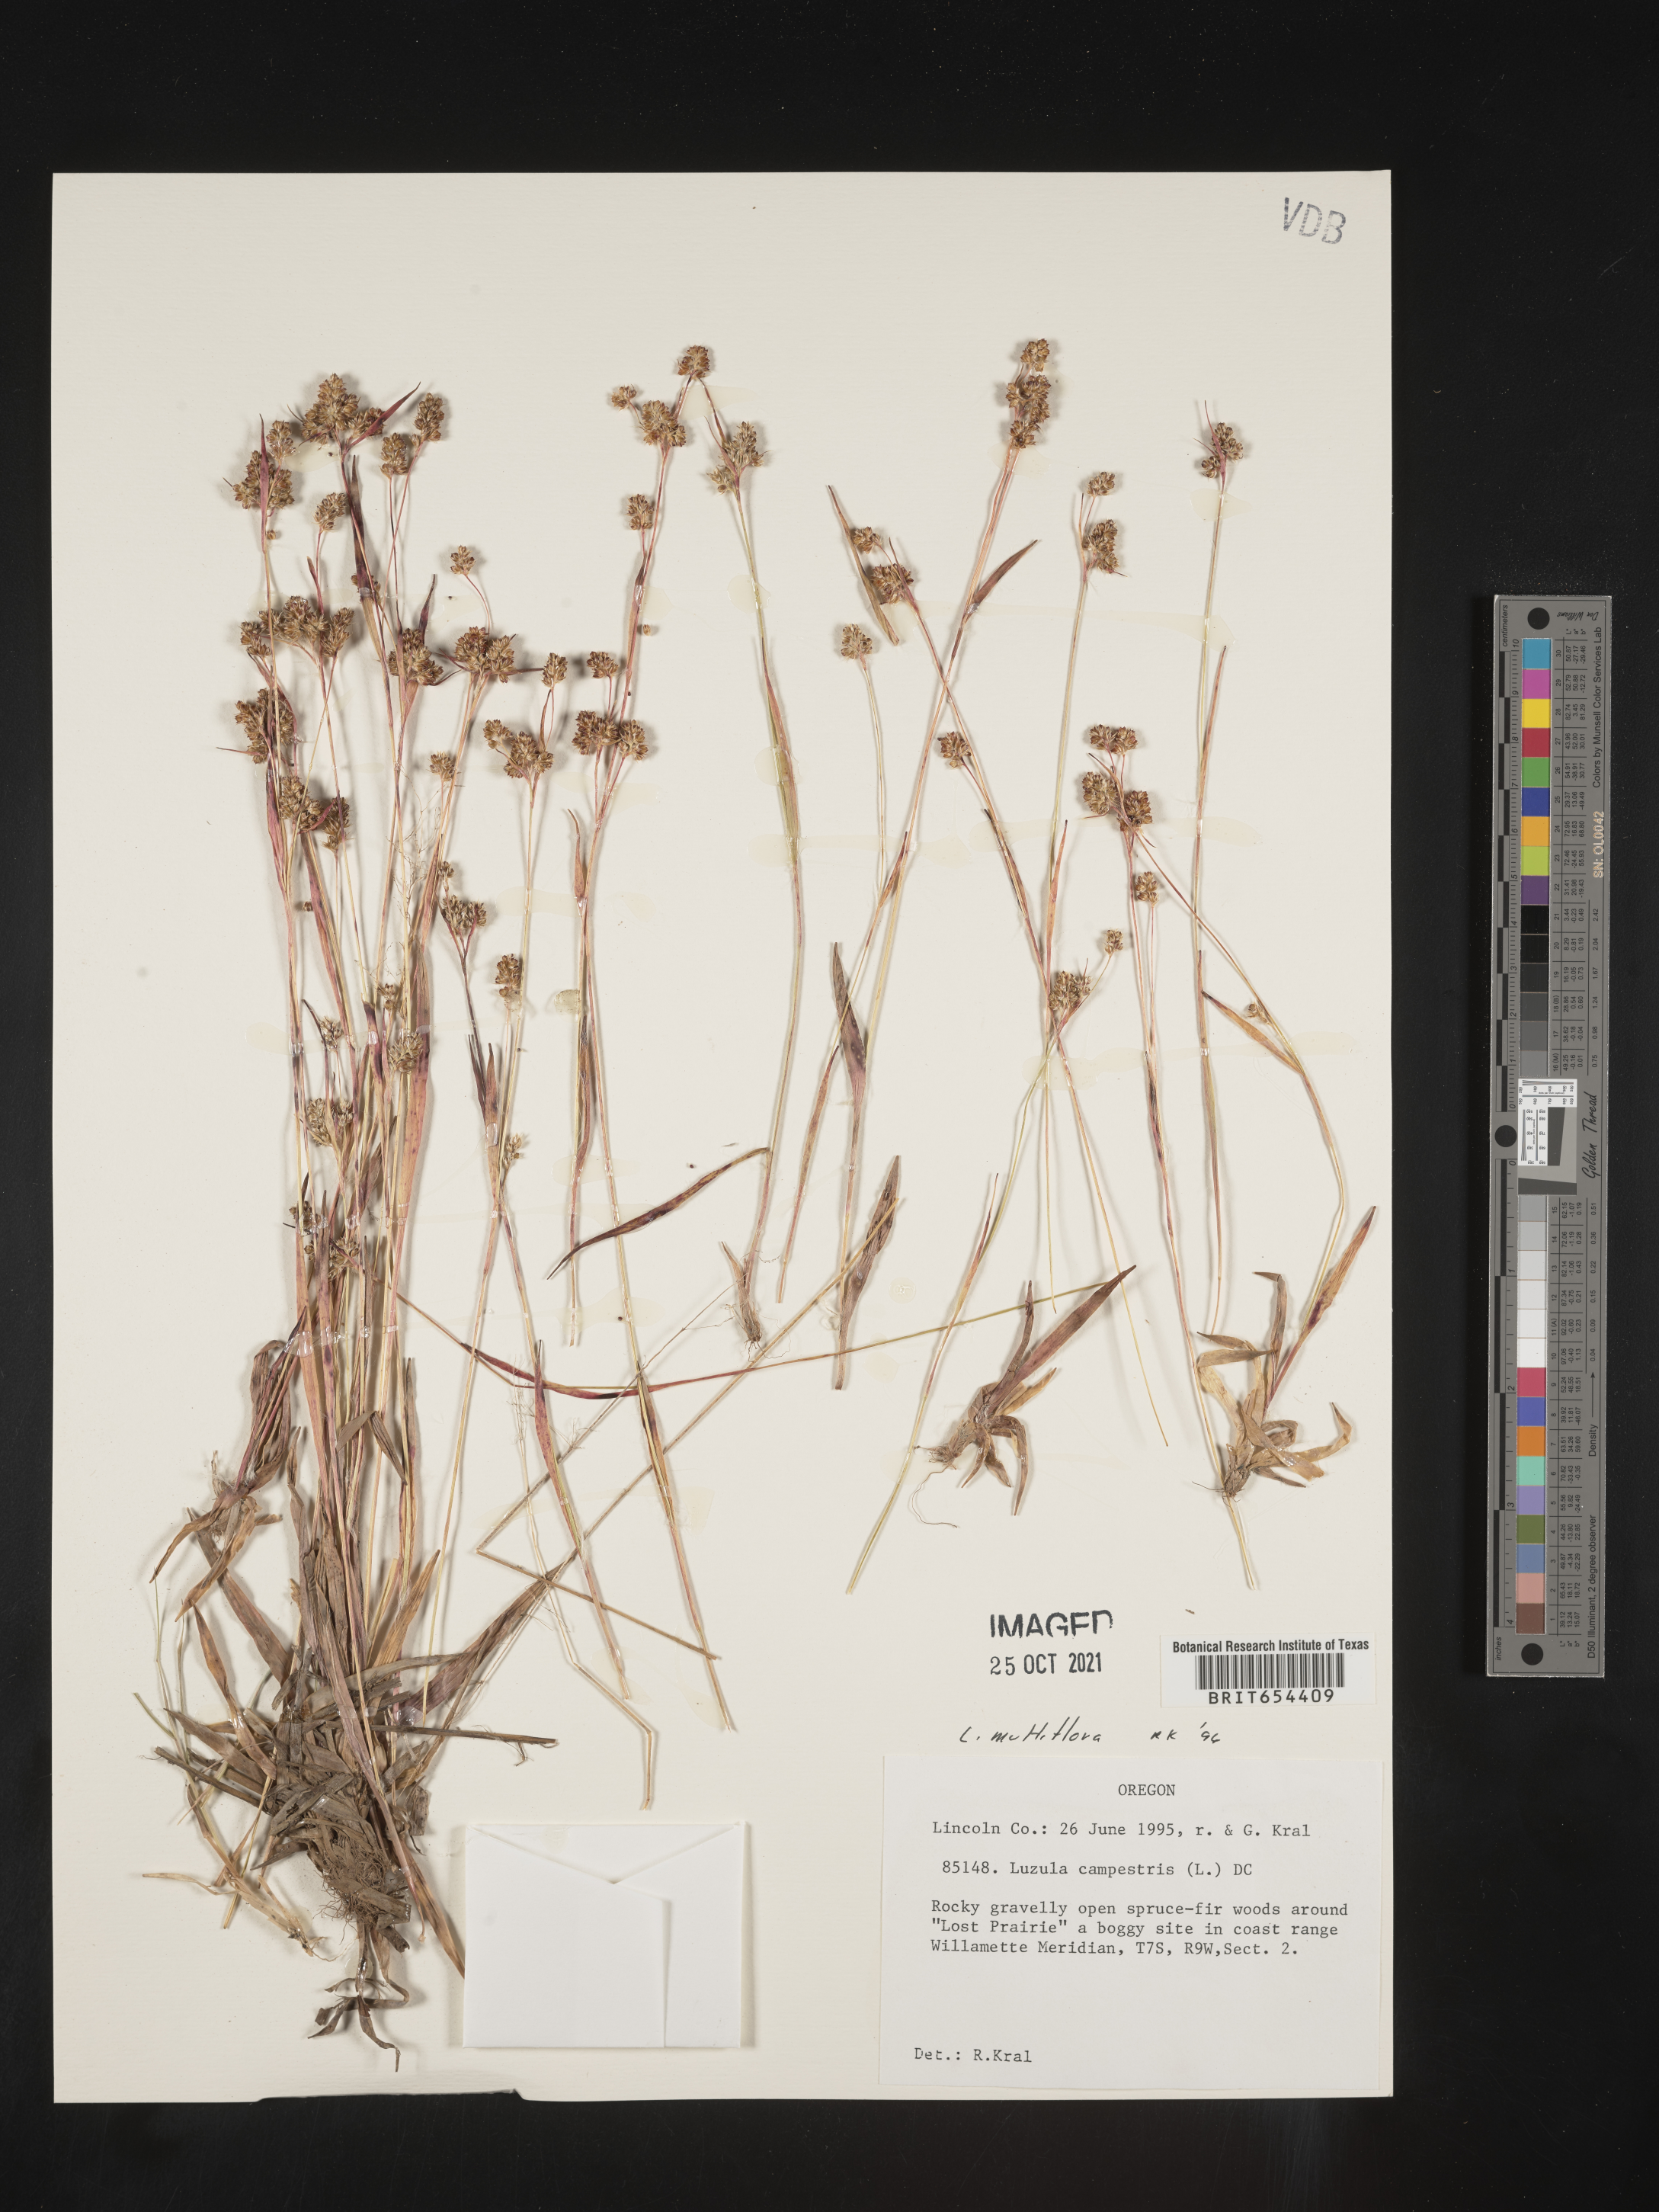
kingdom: Plantae
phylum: Tracheophyta
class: Liliopsida
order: Poales
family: Juncaceae
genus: Luzula
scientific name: Luzula multiflora
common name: Heath wood-rush
